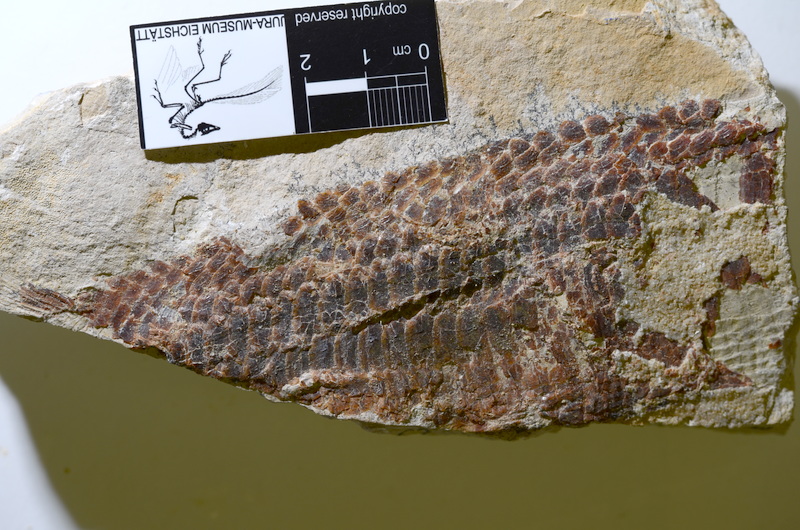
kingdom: Animalia
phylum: Chordata
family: Aspidorhynchidae
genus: Aspidorhynchus
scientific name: Aspidorhynchus
